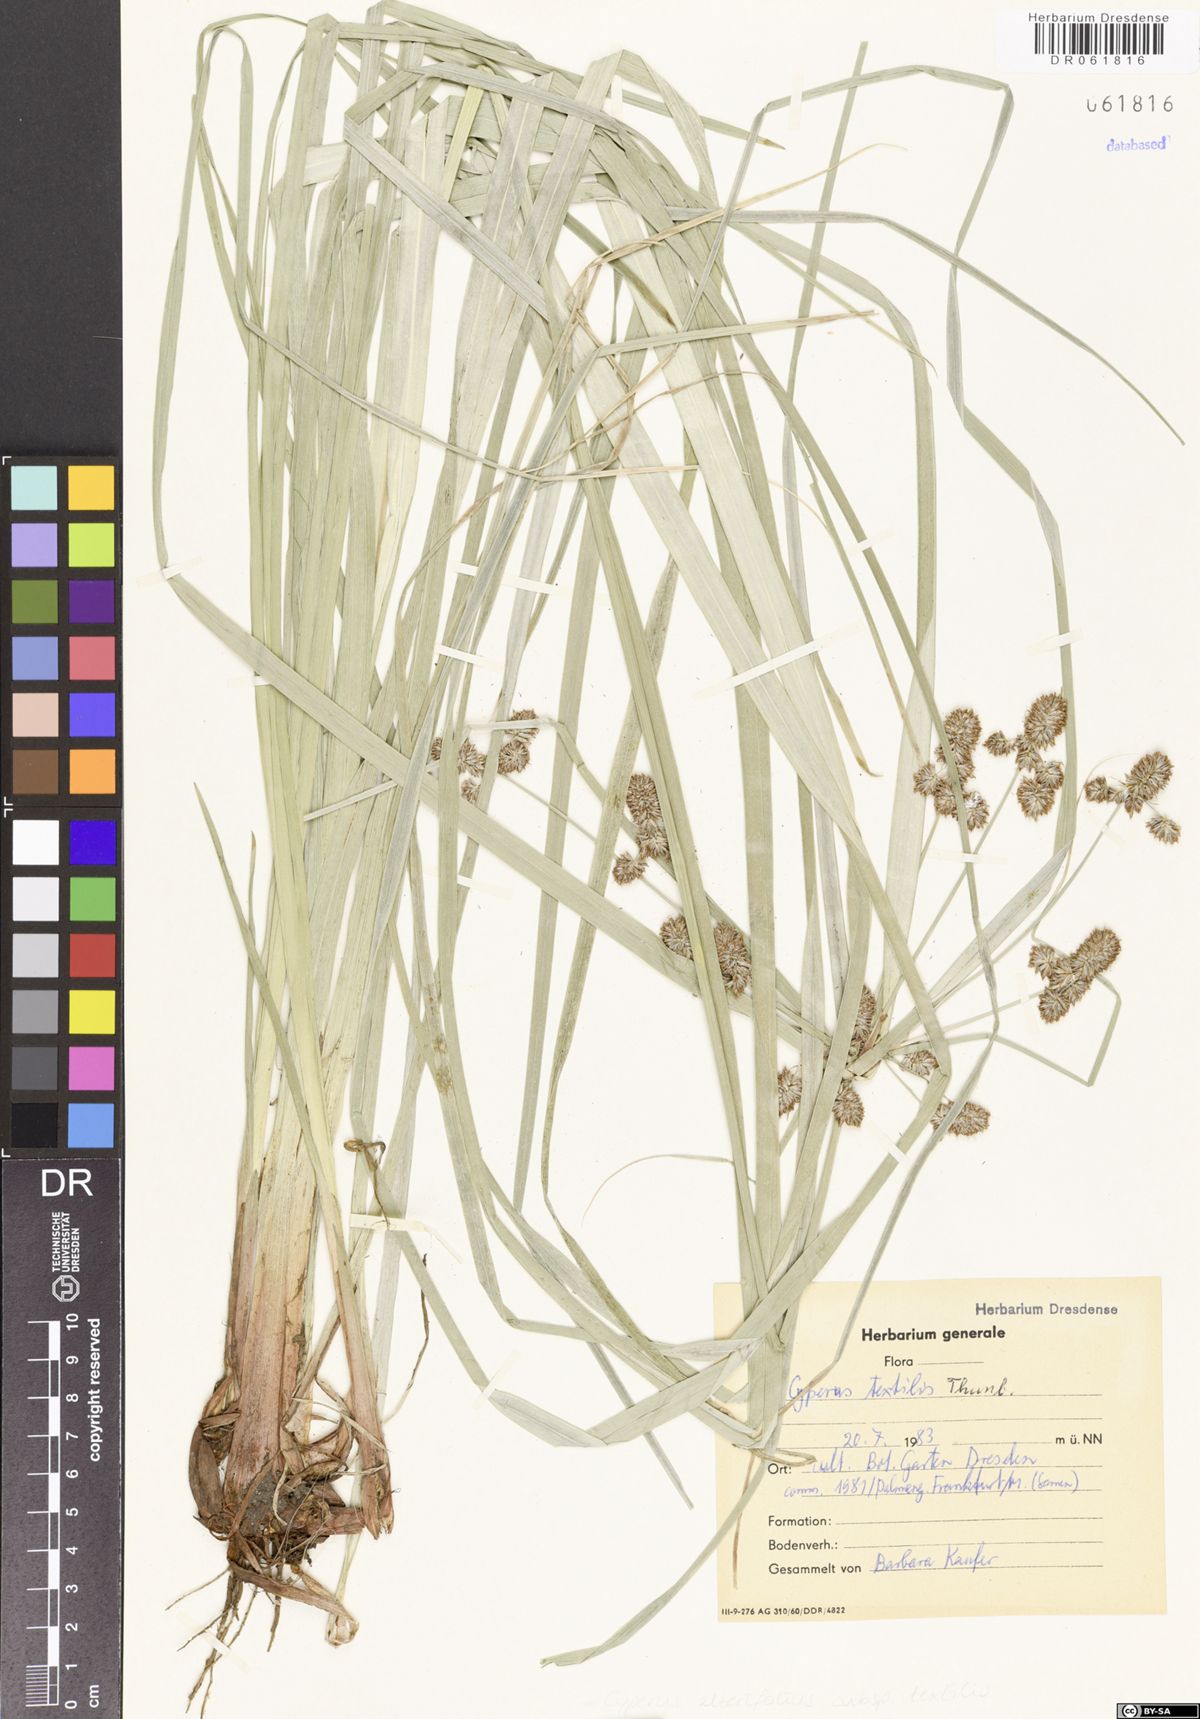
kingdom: Plantae
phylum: Tracheophyta
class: Liliopsida
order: Poales
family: Cyperaceae
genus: Cyperus
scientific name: Cyperus alternifolius
